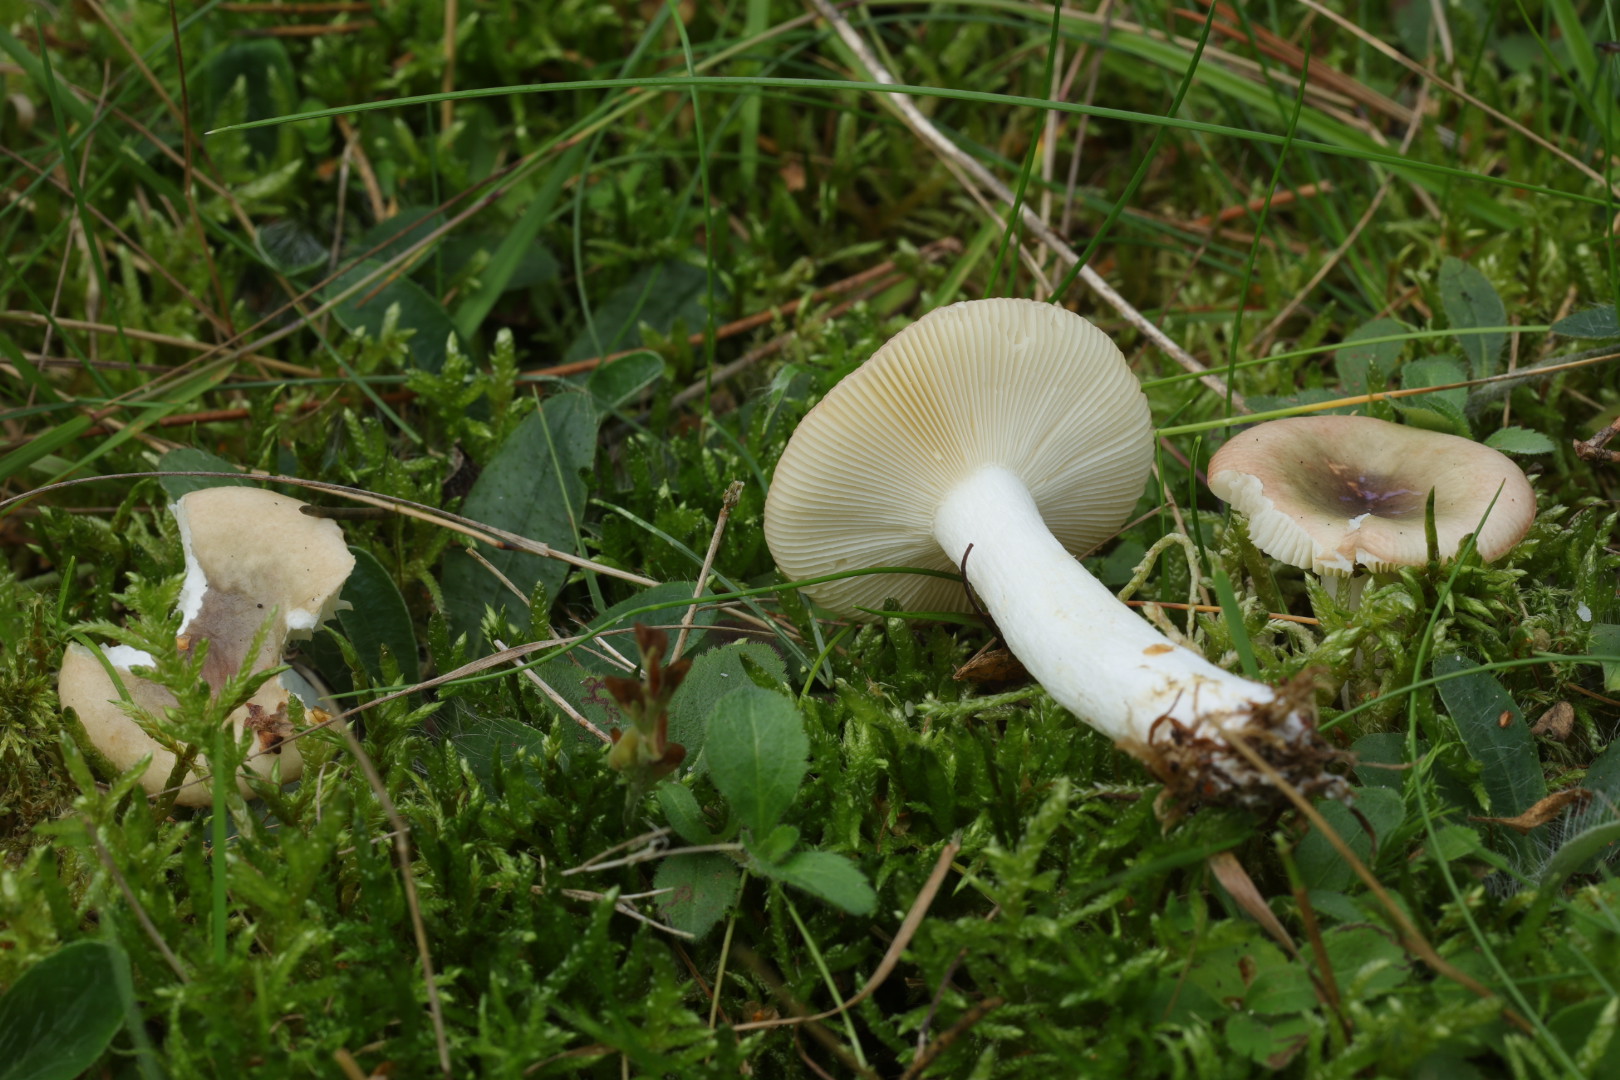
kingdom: Fungi
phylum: Basidiomycota
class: Agaricomycetes
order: Russulales
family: Russulaceae
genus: Russula
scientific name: Russula aeruginea
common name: græsgrøn skørhat
